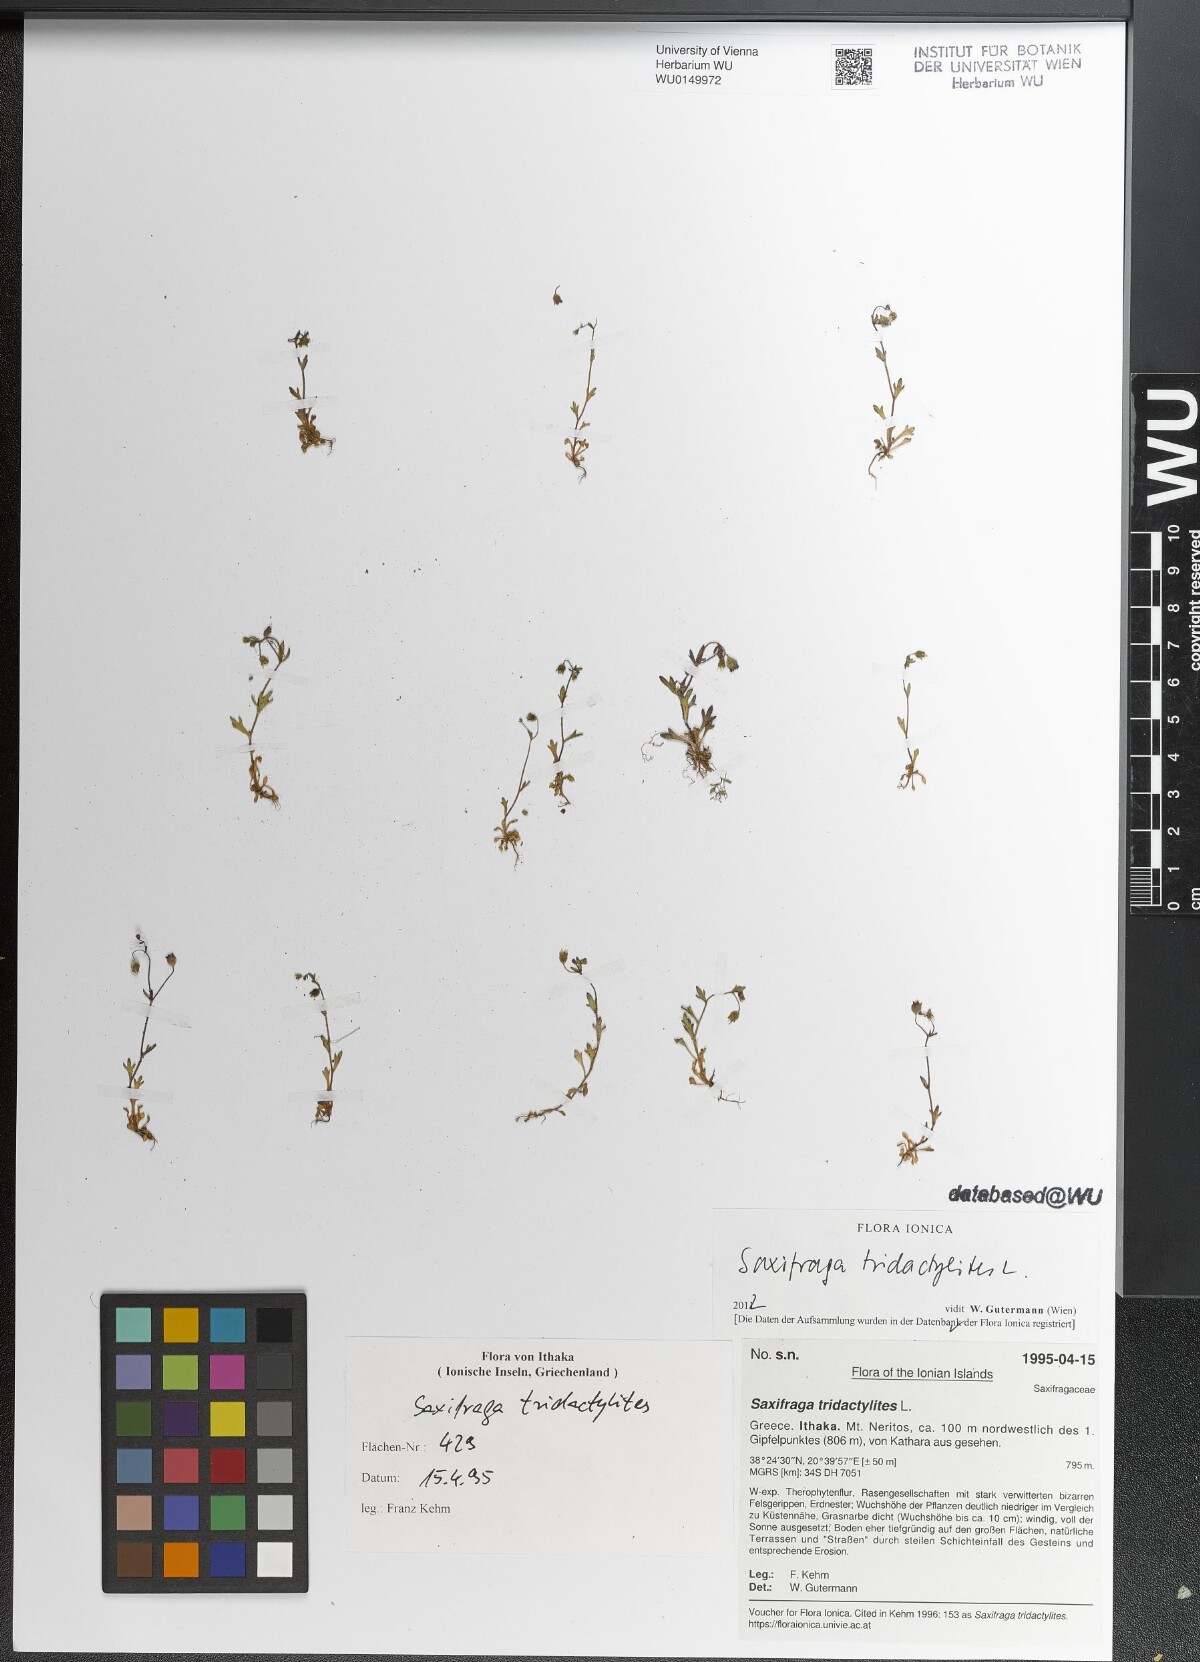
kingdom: Plantae
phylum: Tracheophyta
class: Magnoliopsida
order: Saxifragales
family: Saxifragaceae
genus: Saxifraga
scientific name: Saxifraga tridactylites
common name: Rue-leaved saxifrage
